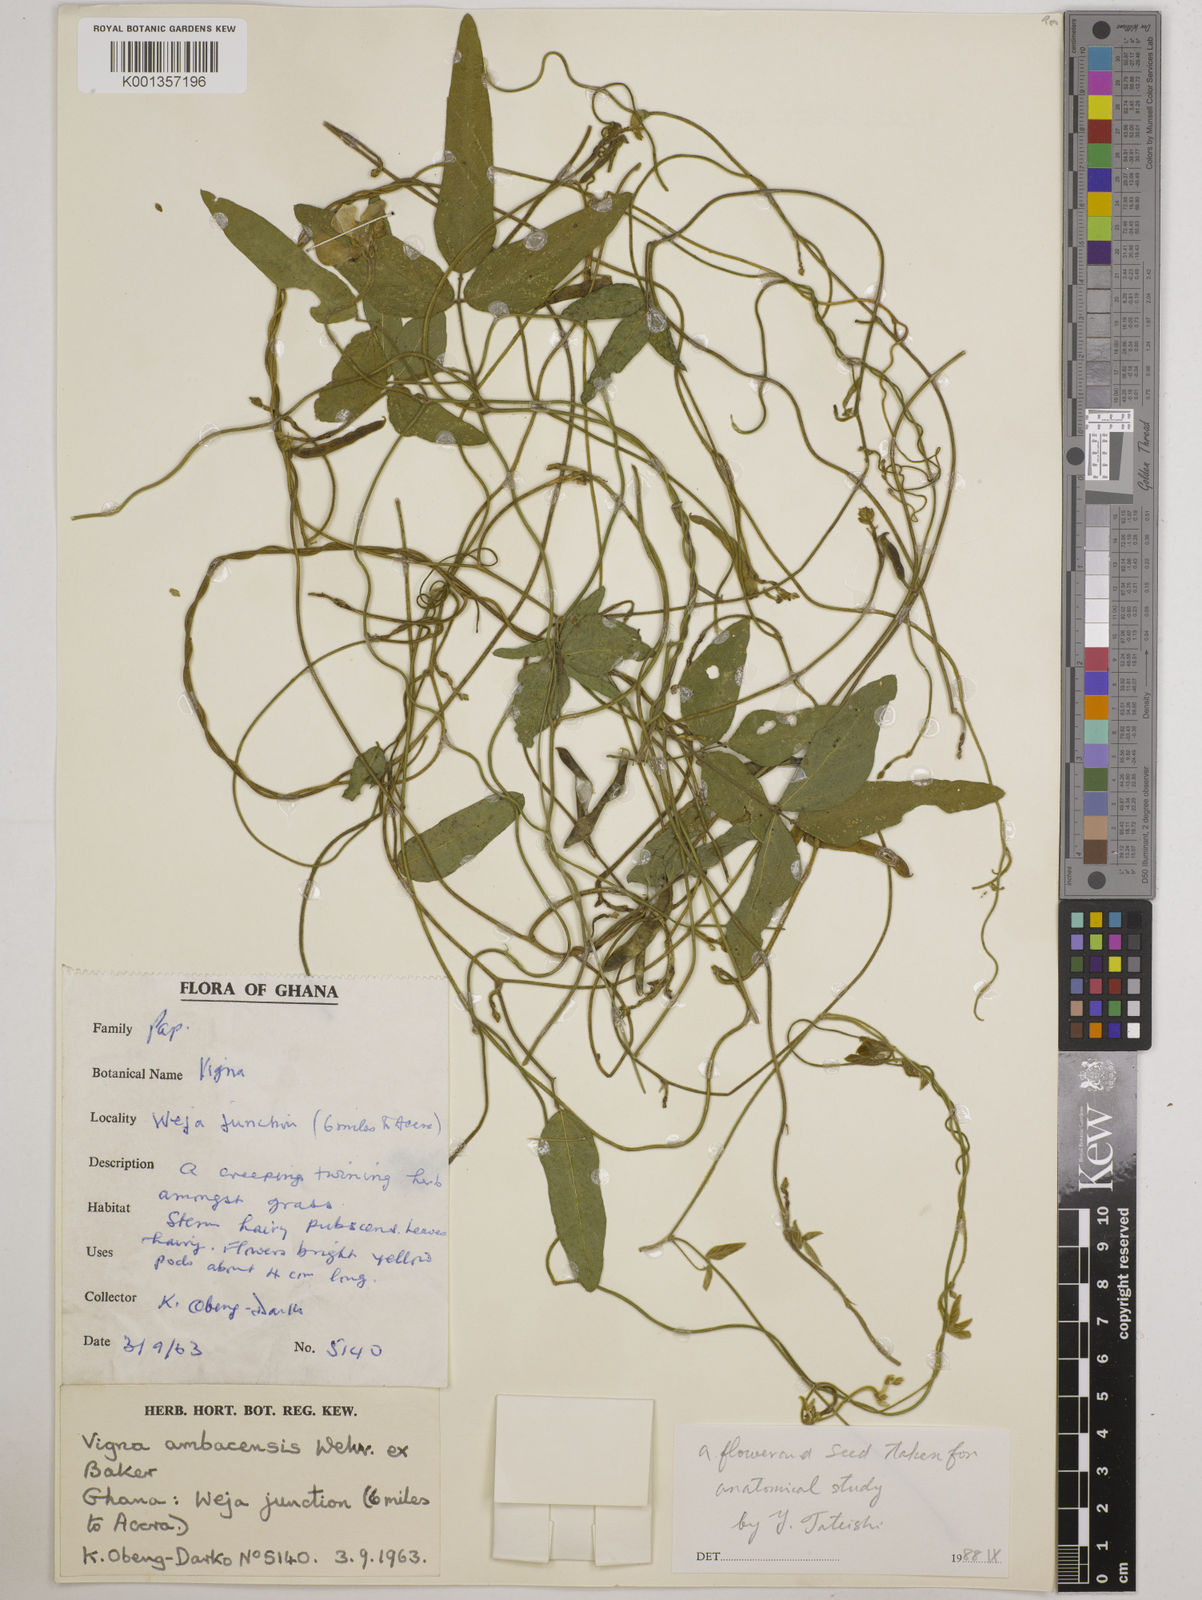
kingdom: Plantae
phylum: Tracheophyta
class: Magnoliopsida
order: Fabales
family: Fabaceae
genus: Vigna
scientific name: Vigna ambacensis
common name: Tsarkiyan zomo
